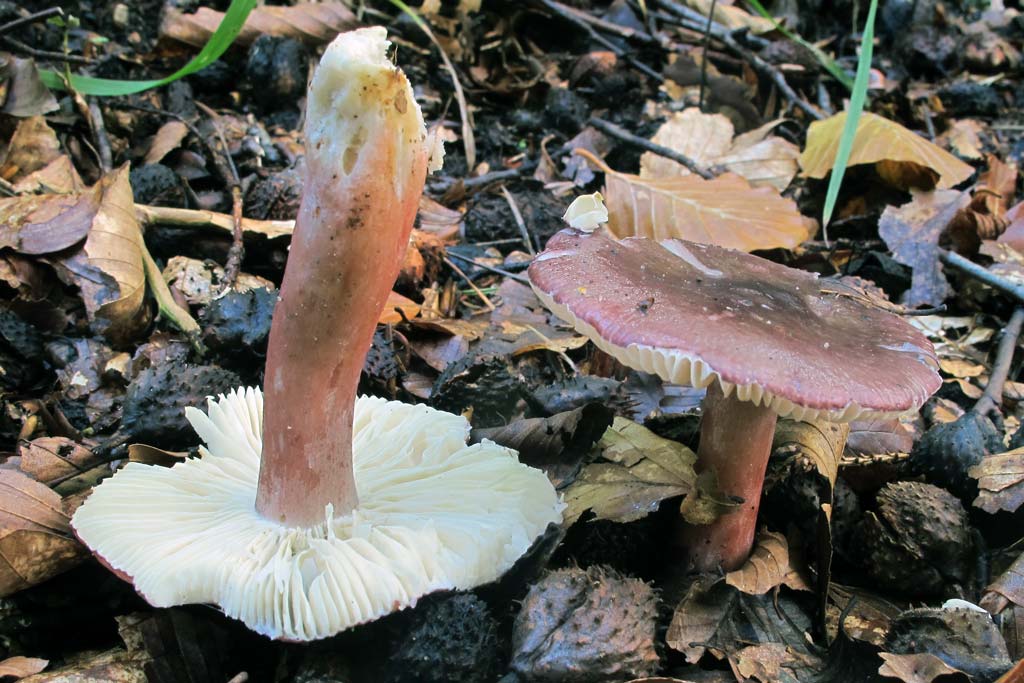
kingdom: Fungi
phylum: Basidiomycota
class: Agaricomycetes
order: Russulales
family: Russulaceae
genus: Russula
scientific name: Russula queletii
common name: Quélets skørhat
